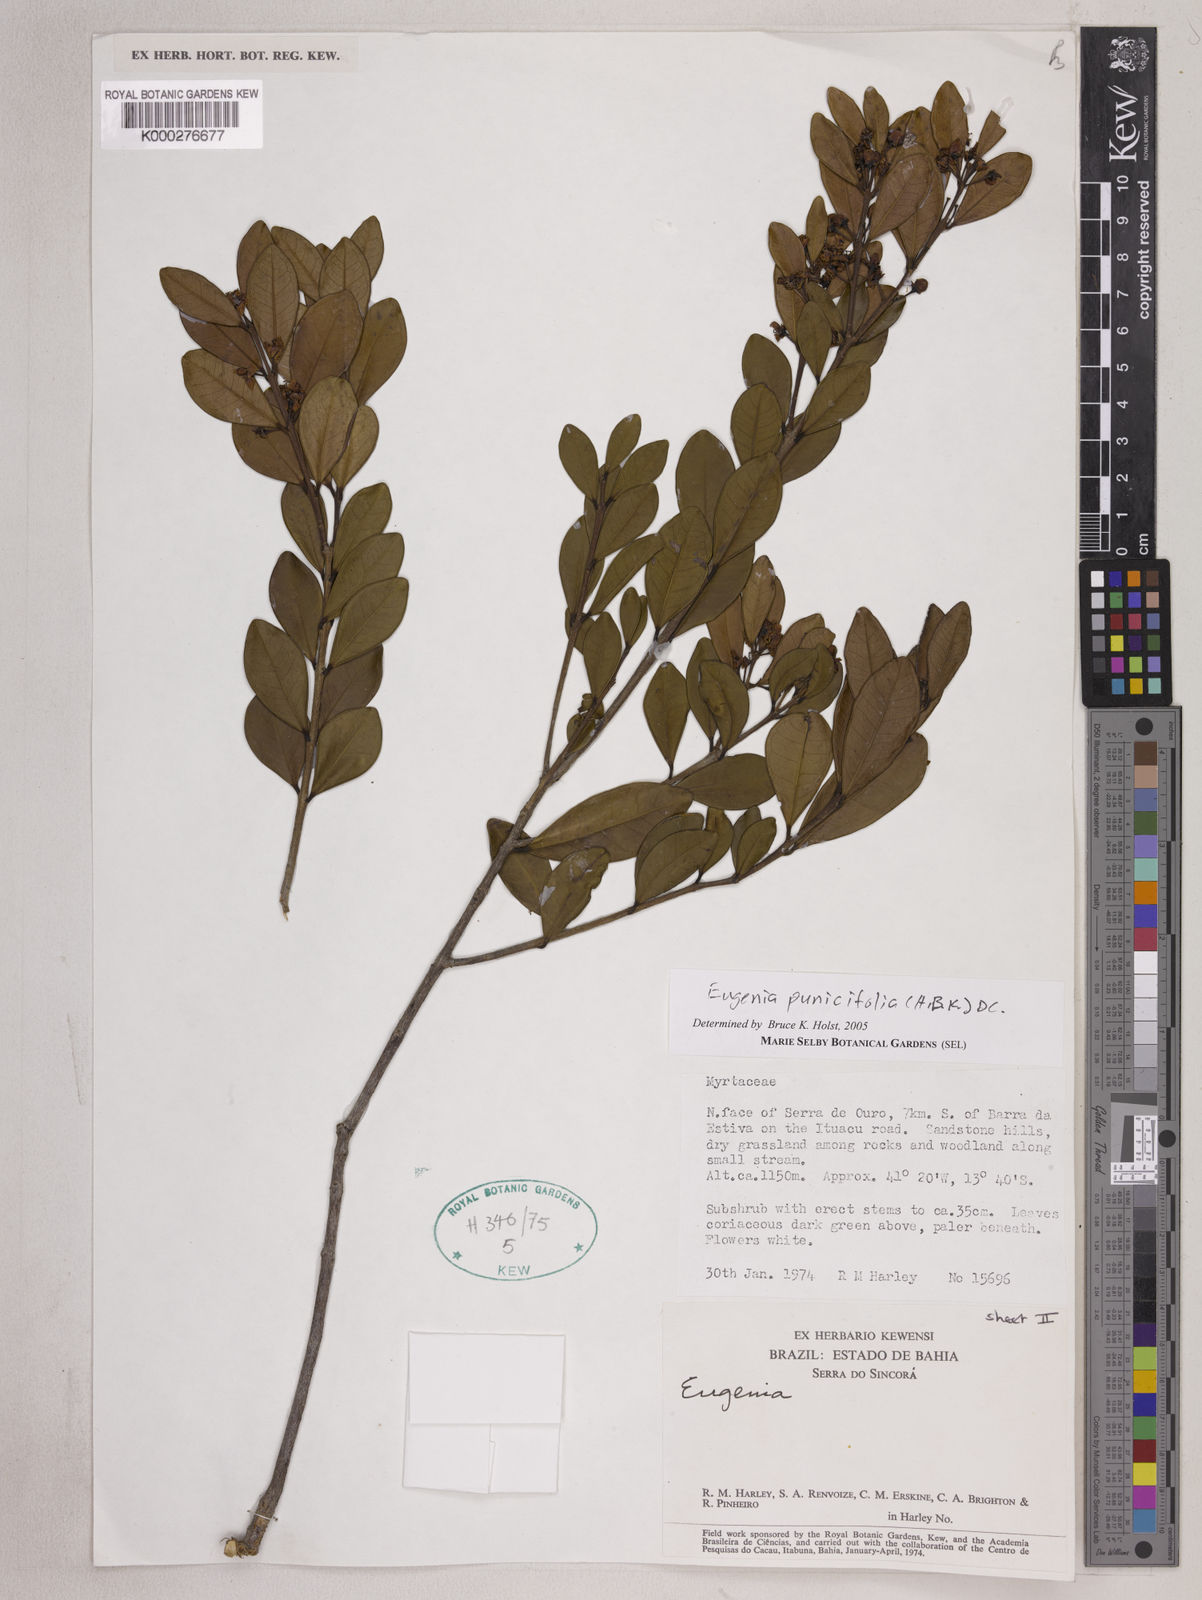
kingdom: Plantae
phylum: Tracheophyta
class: Magnoliopsida
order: Myrtales
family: Myrtaceae
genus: Eugenia
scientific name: Eugenia punicifolia
